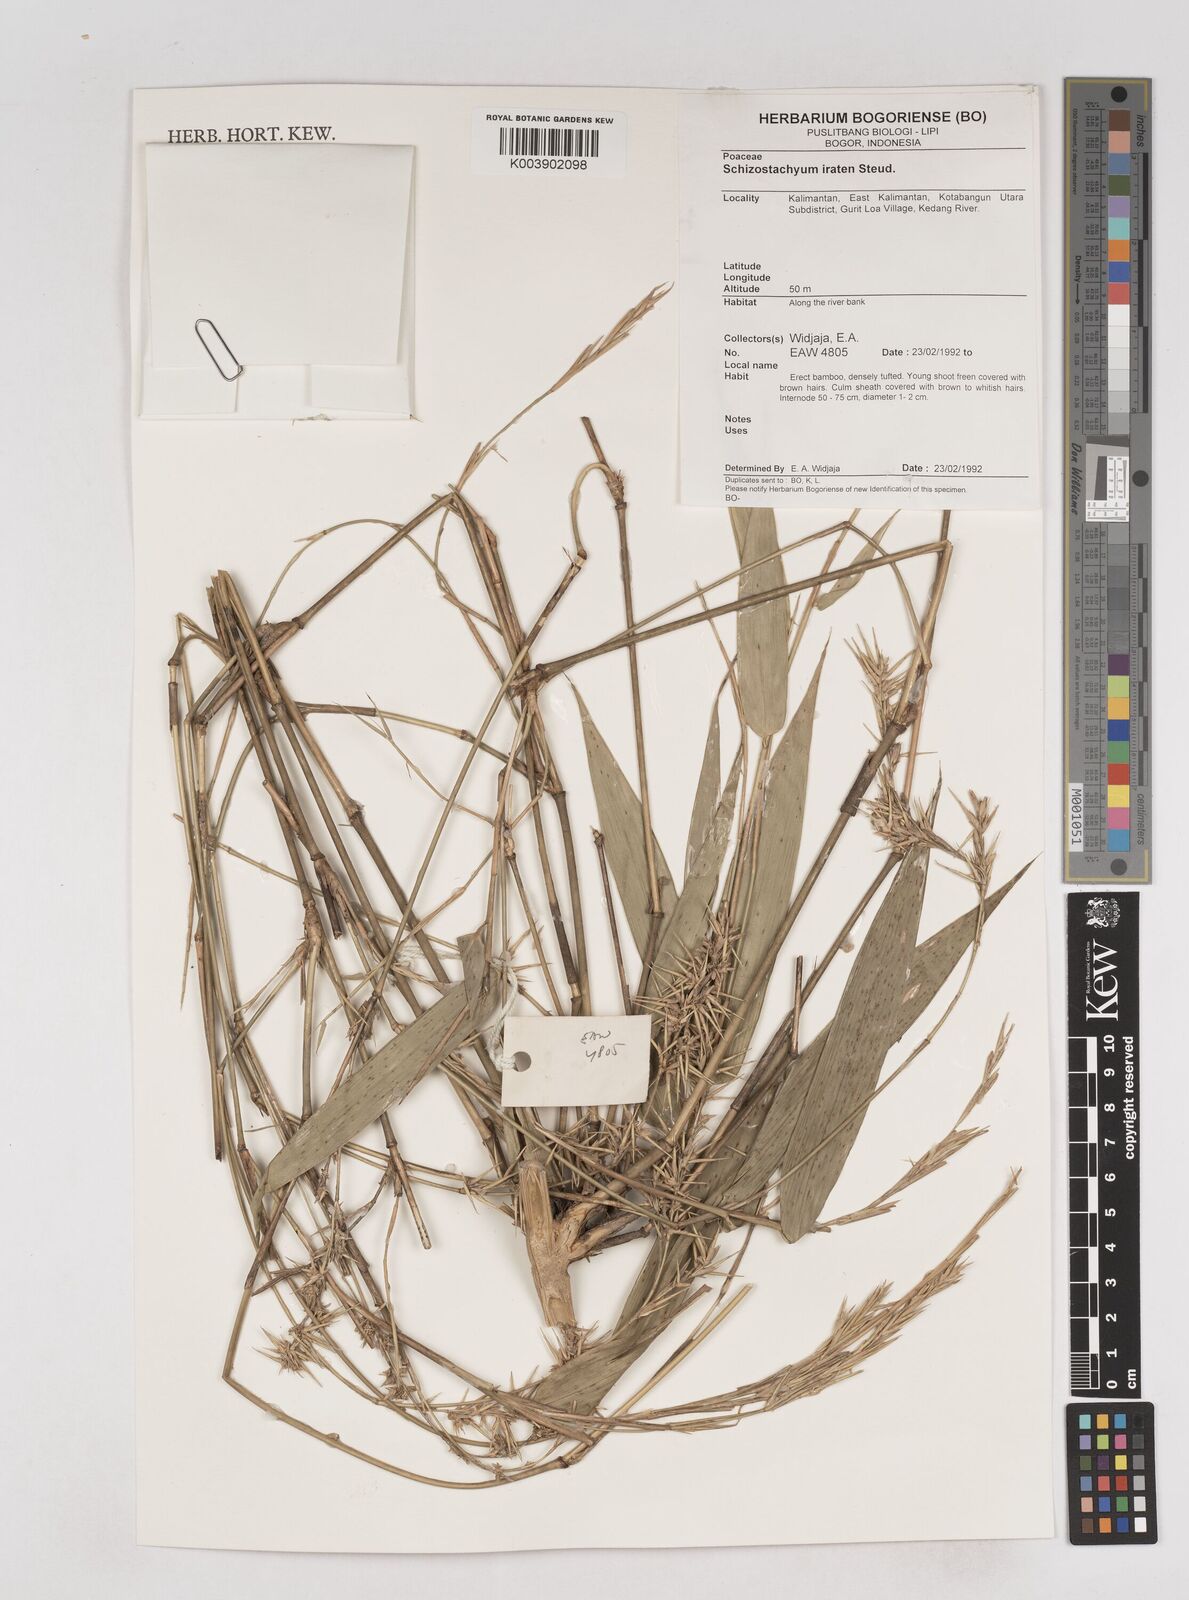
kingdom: Plantae
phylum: Tracheophyta
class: Liliopsida
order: Poales
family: Poaceae
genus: Schizostachyum
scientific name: Schizostachyum iraten
